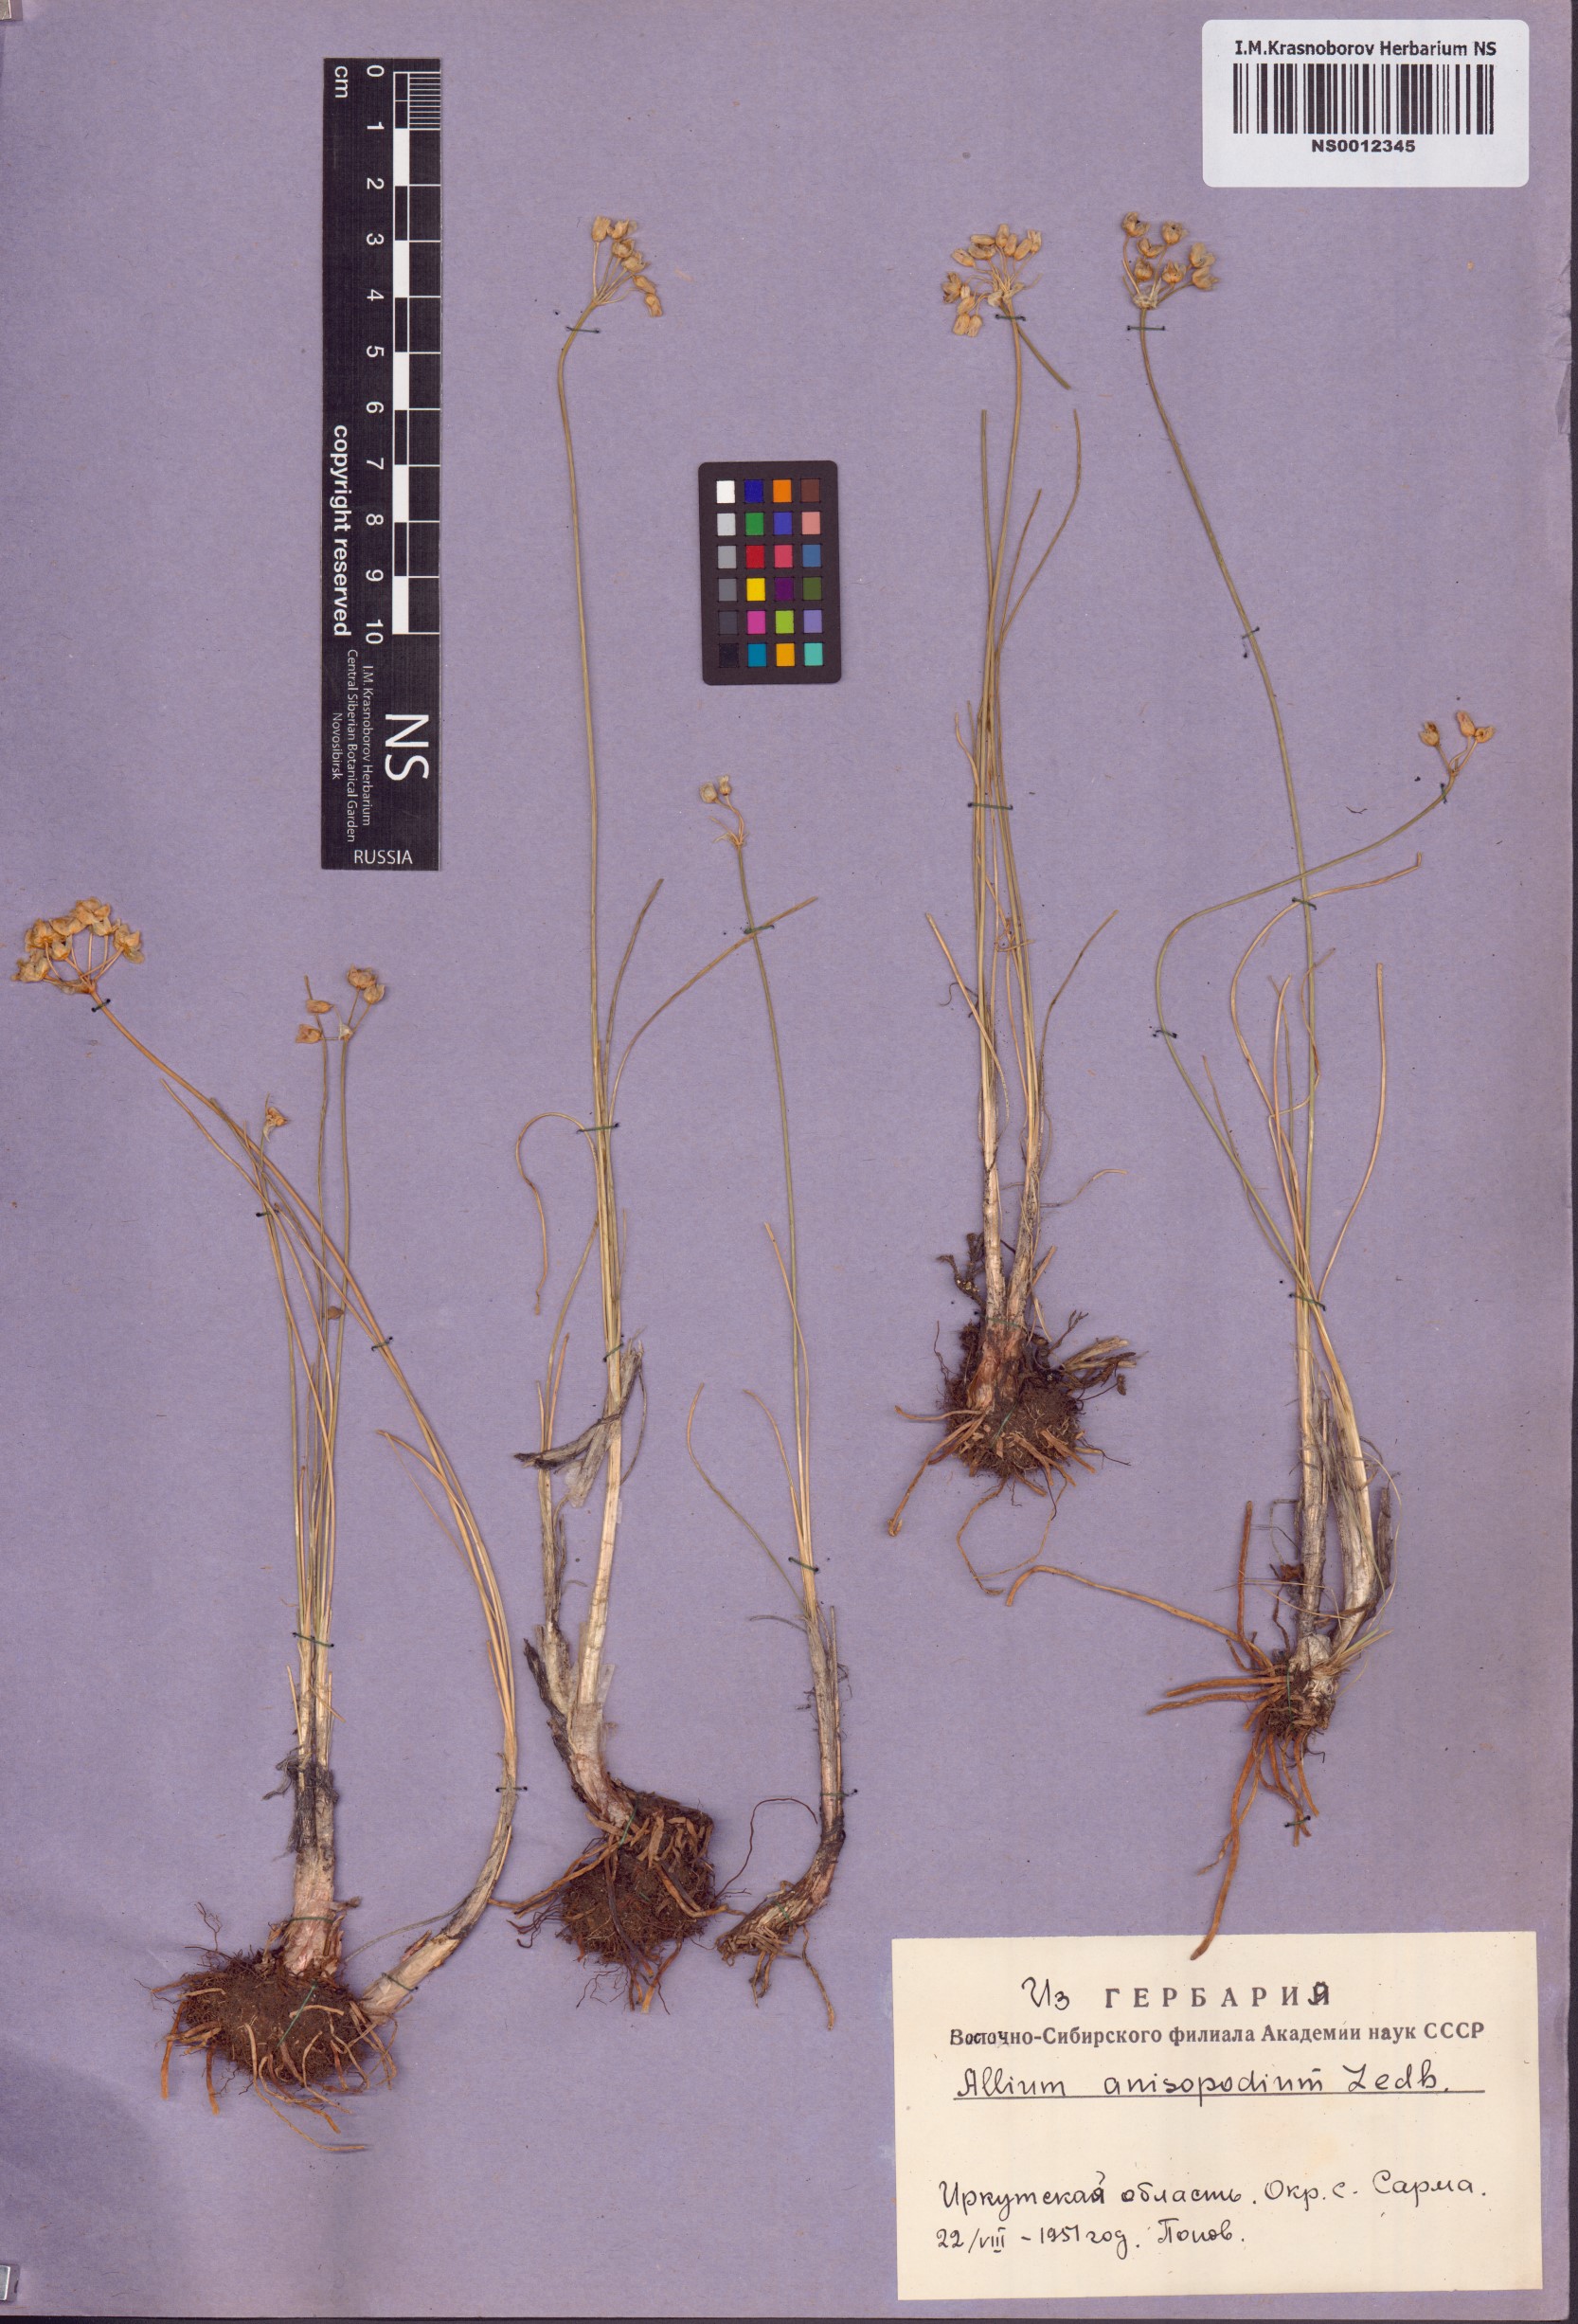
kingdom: Plantae
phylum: Tracheophyta
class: Liliopsida
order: Asparagales
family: Amaryllidaceae
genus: Allium
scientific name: Allium anisopodium
